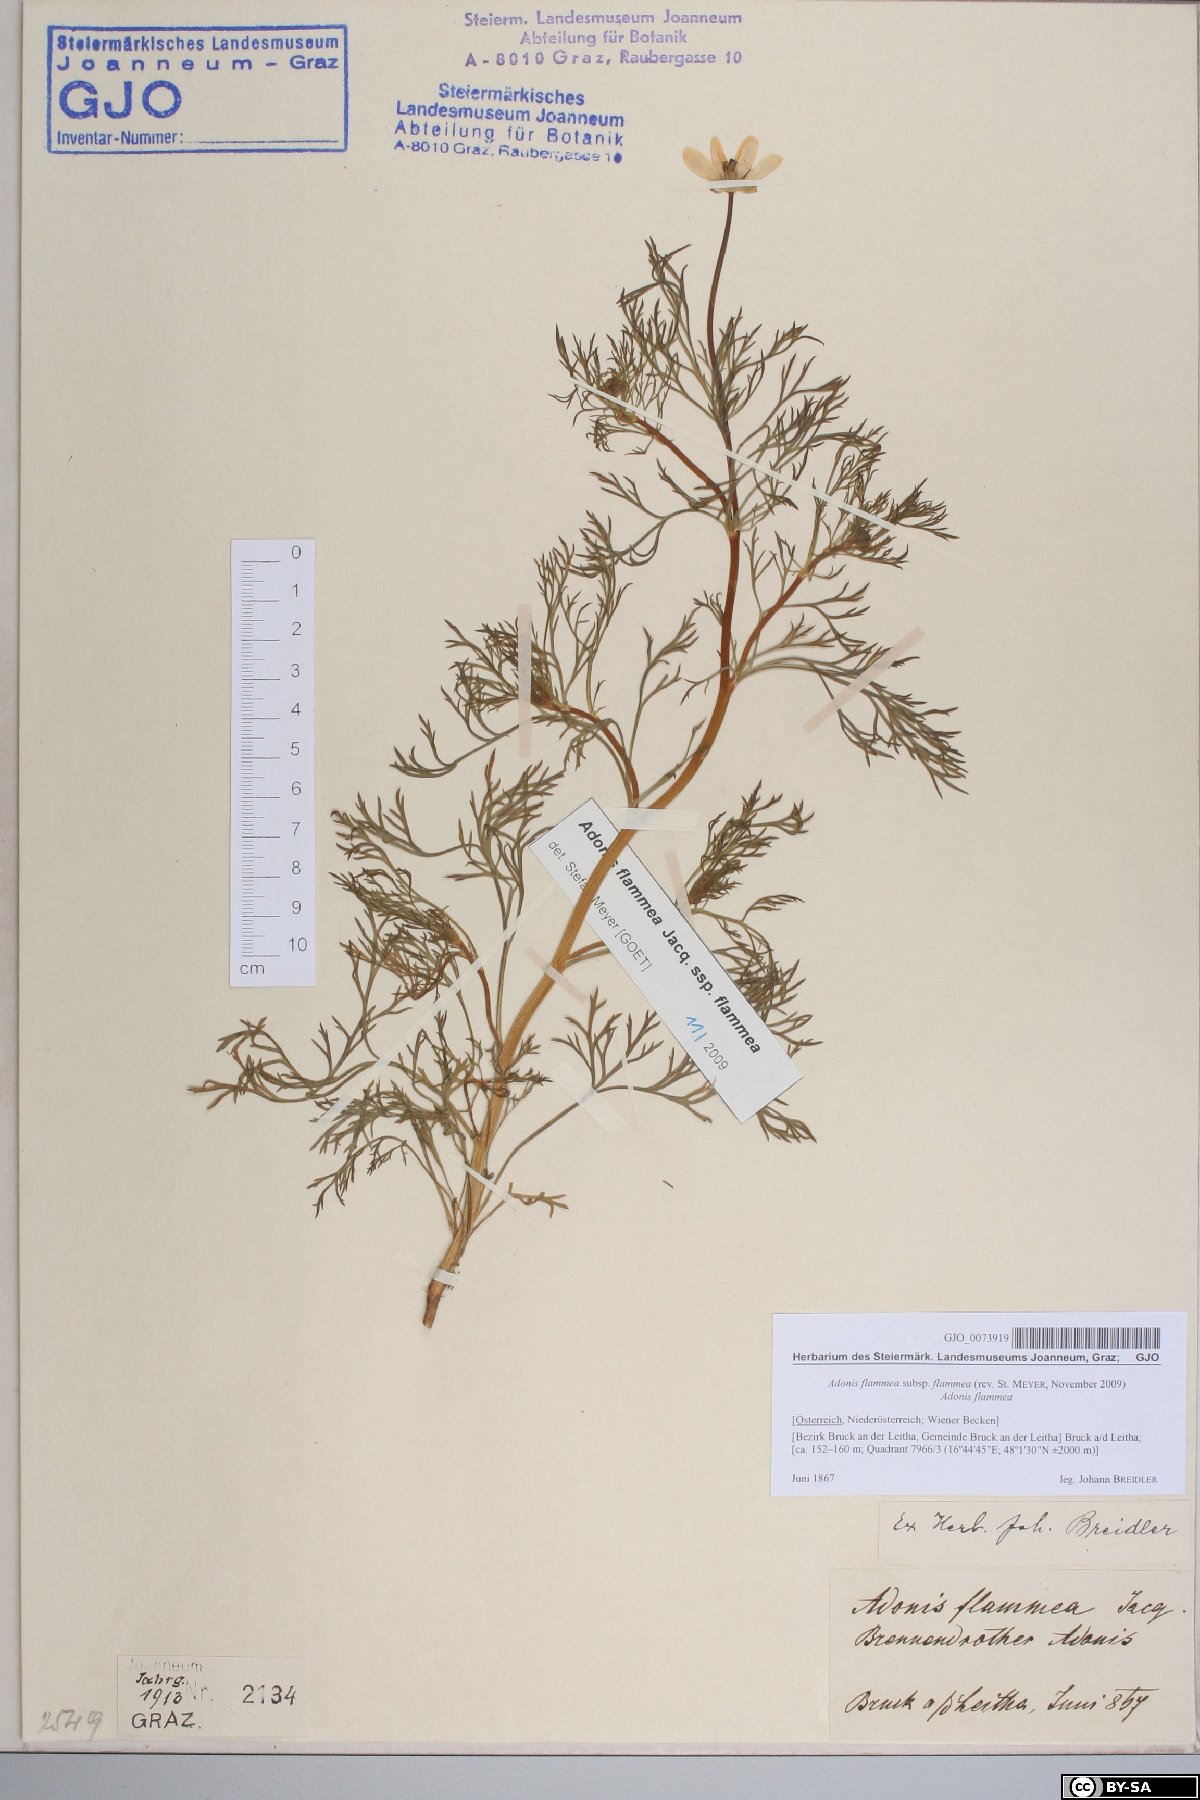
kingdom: Plantae
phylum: Tracheophyta
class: Magnoliopsida
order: Ranunculales
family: Ranunculaceae
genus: Adonis
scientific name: Adonis flammea
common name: Large pheasant's-eye
